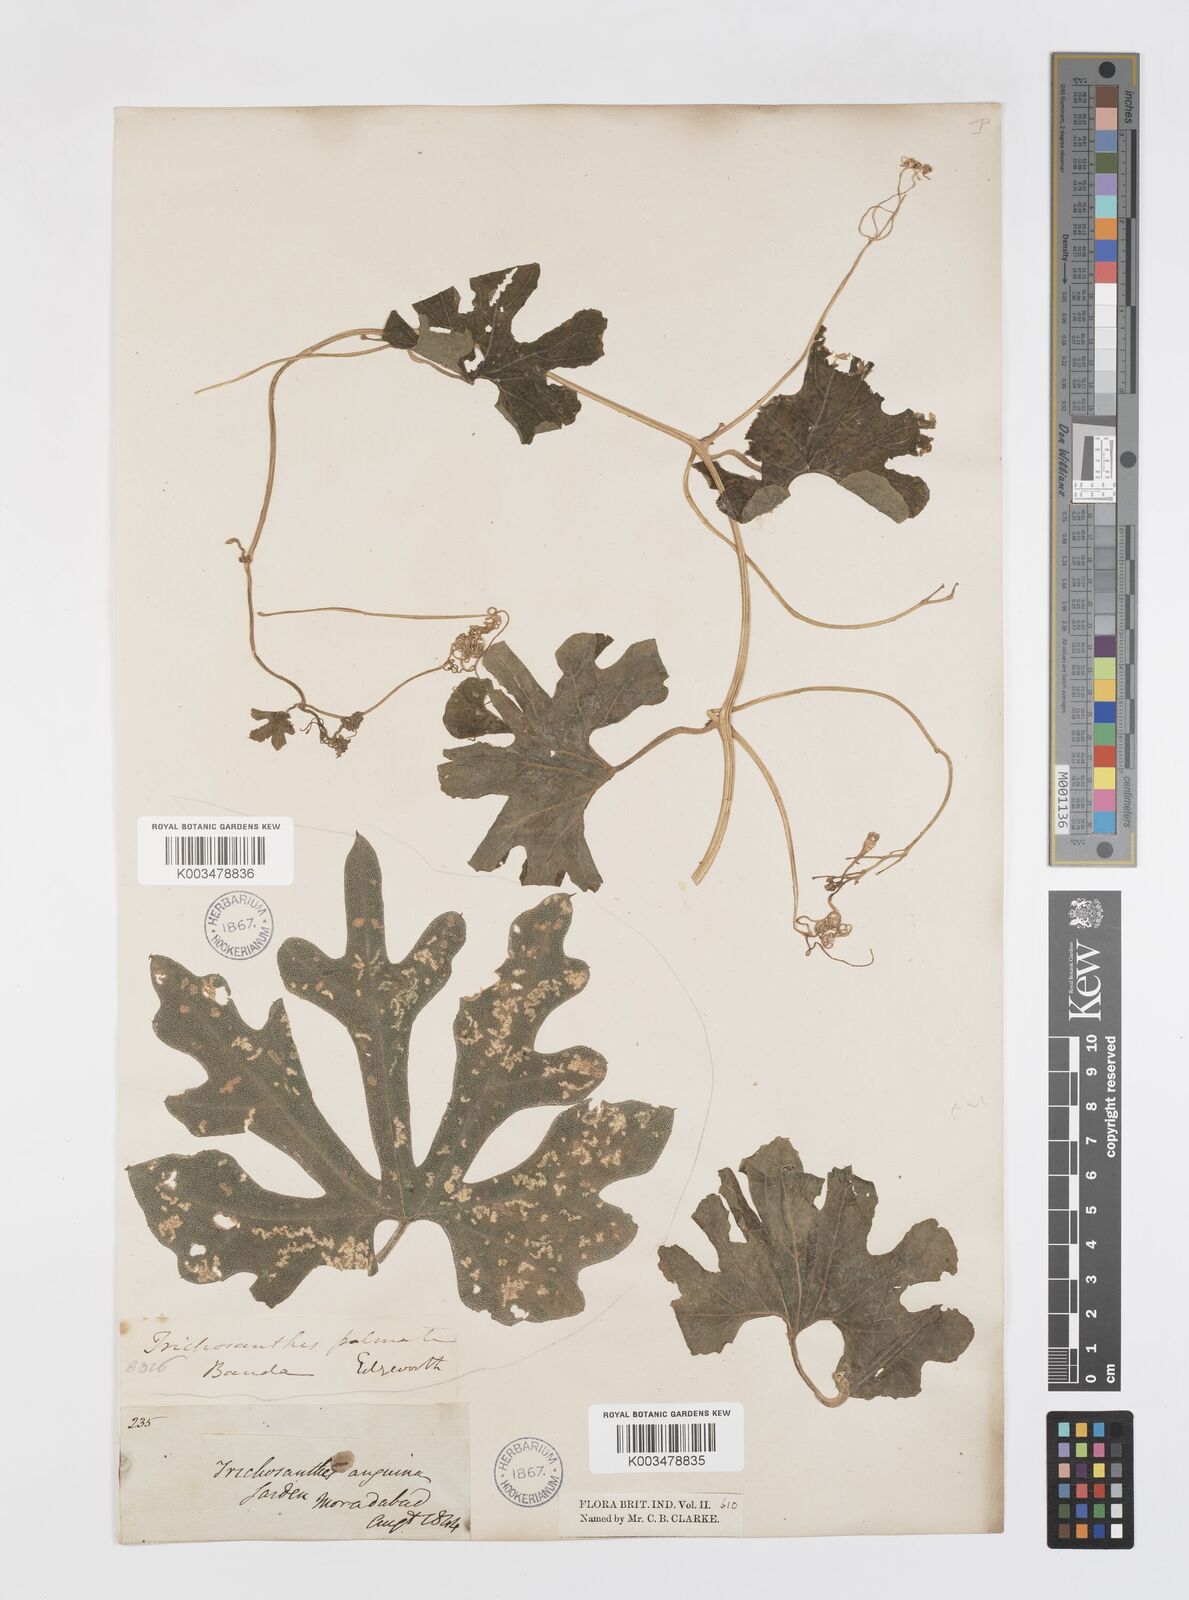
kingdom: Plantae
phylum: Tracheophyta
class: Magnoliopsida
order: Cucurbitales
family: Cucurbitaceae
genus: Trichosanthes
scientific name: Trichosanthes cucumerina
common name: Snakegourd
